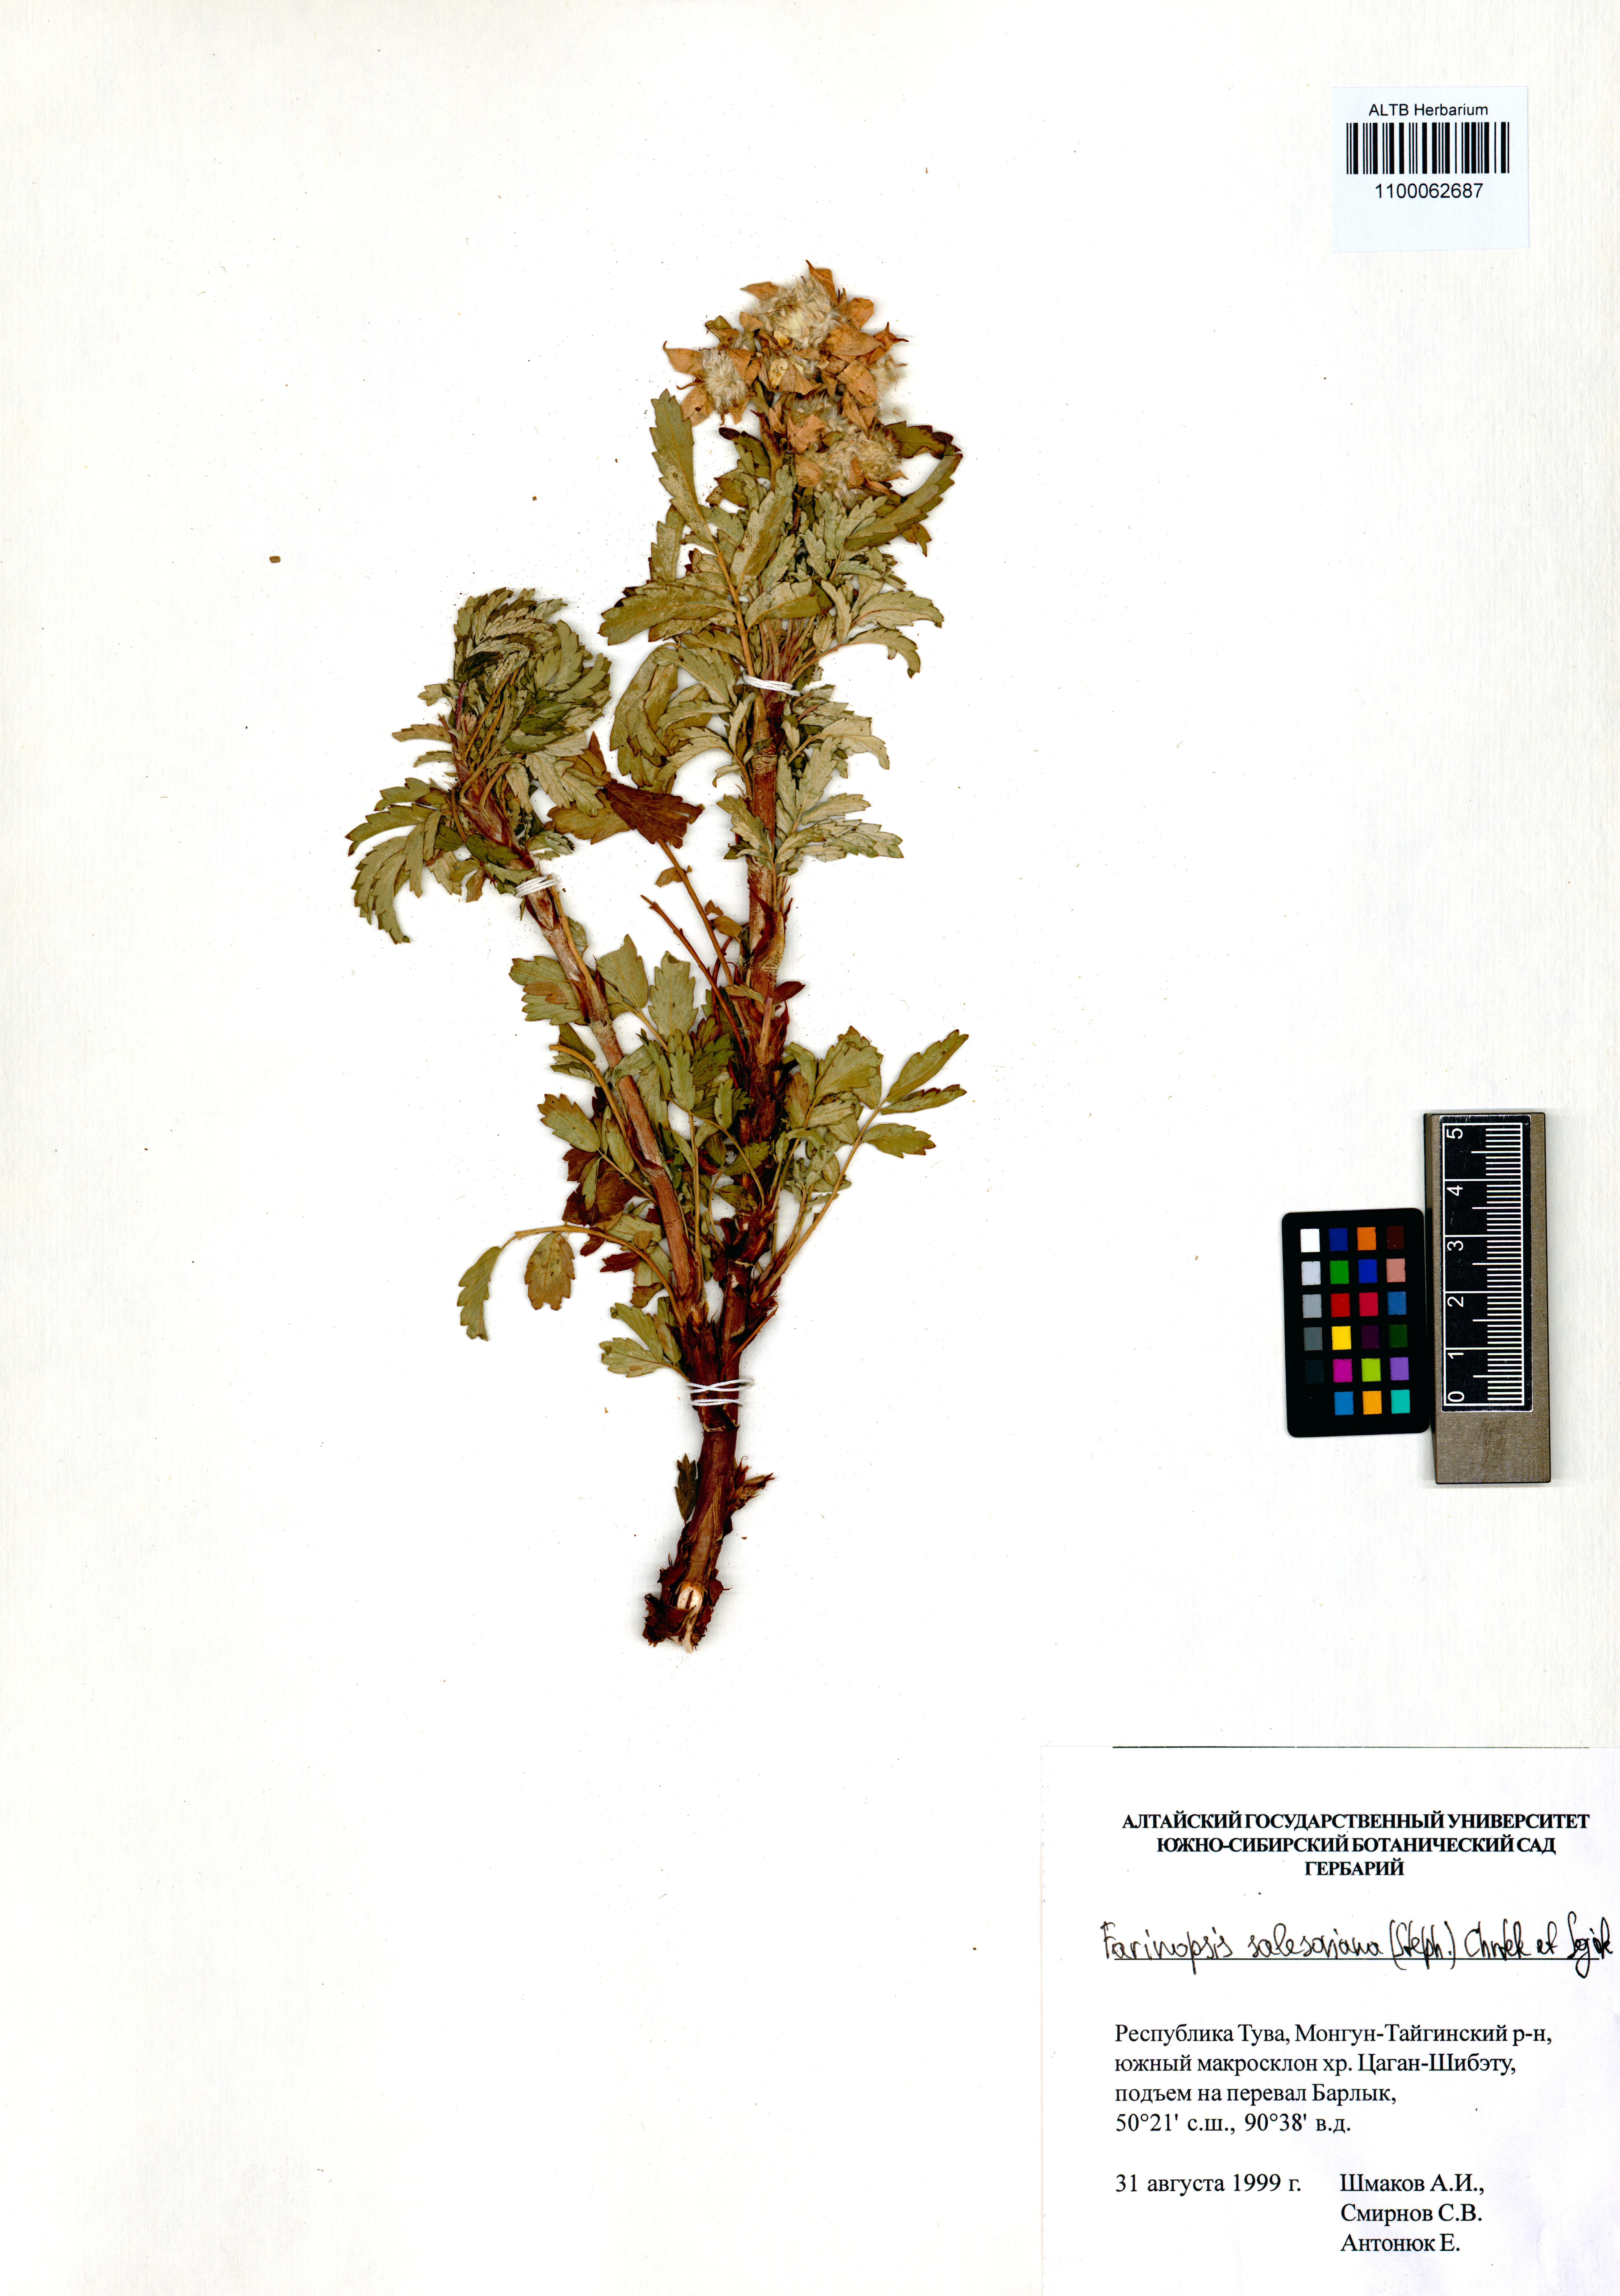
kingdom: Plantae
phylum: Tracheophyta
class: Magnoliopsida
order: Rosales
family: Rosaceae
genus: Farinopsis
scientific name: Farinopsis salesoviana
